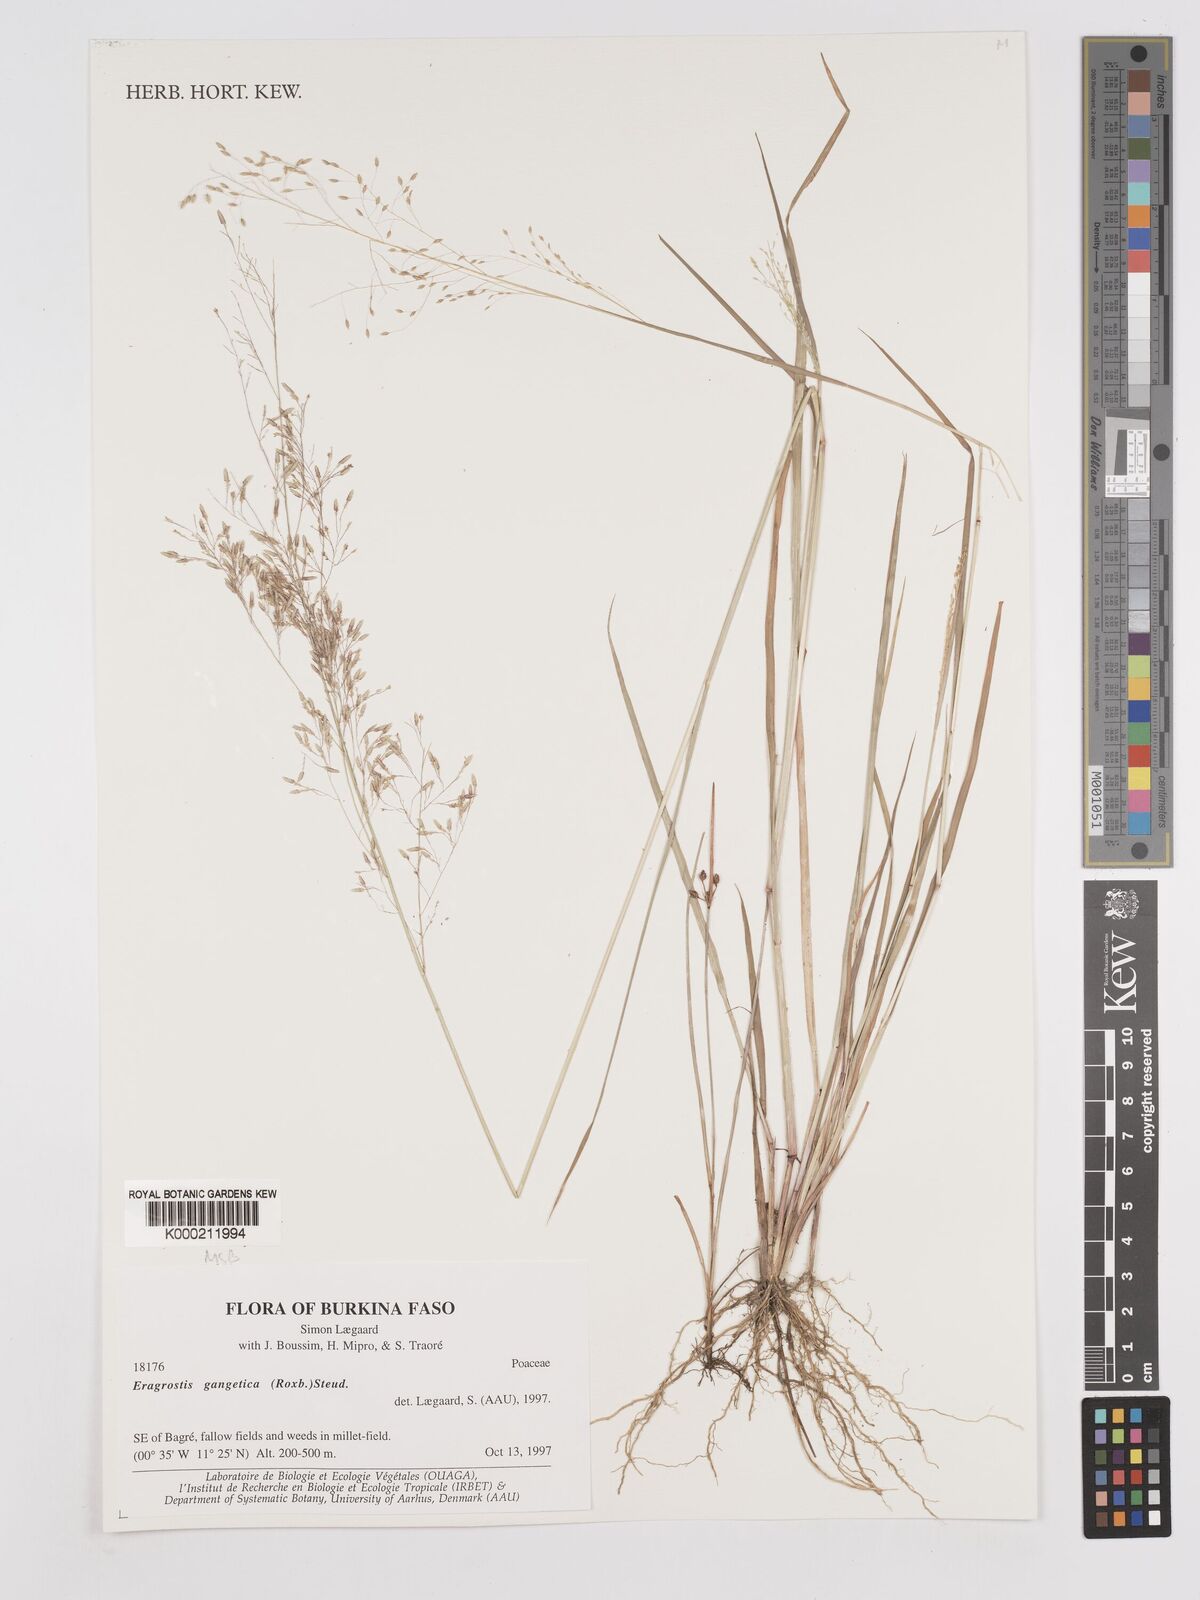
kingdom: Plantae
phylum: Tracheophyta
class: Liliopsida
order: Poales
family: Poaceae
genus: Eragrostis
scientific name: Eragrostis gangetica
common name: Slimflower lovegrass
